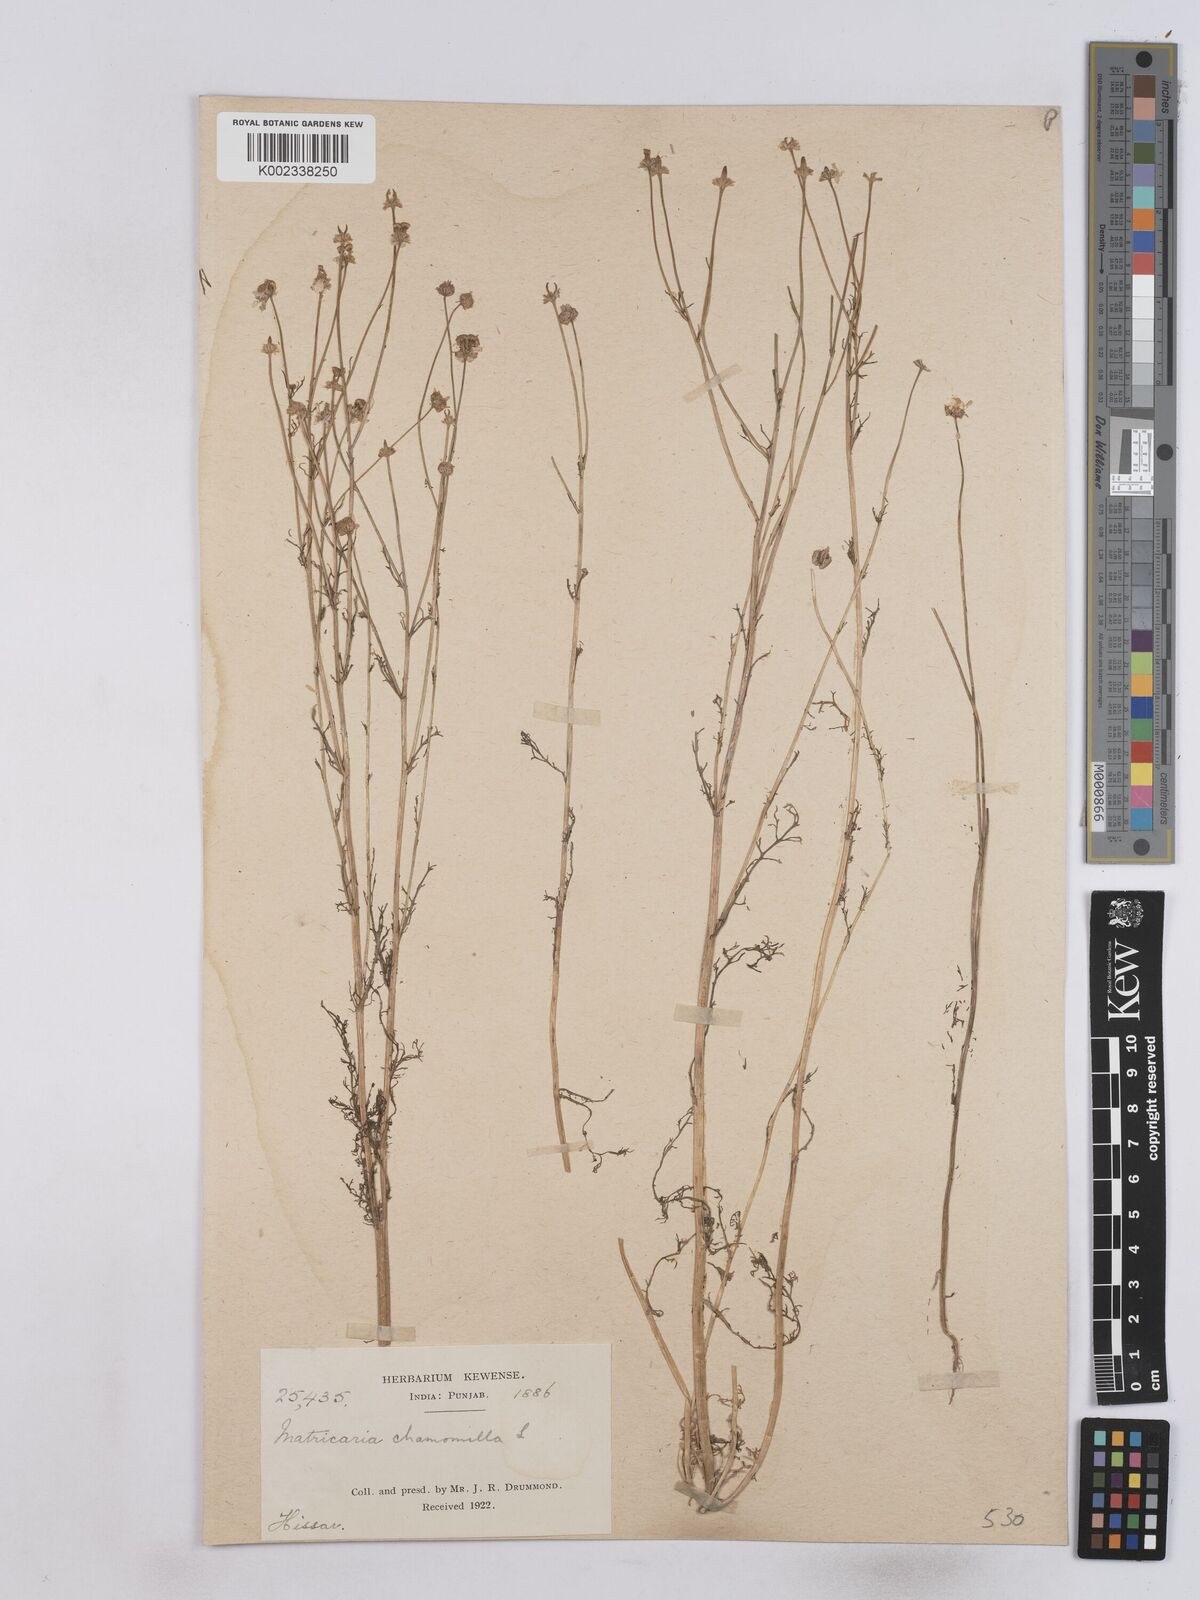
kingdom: Plantae
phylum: Tracheophyta
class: Magnoliopsida
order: Asterales
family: Asteraceae
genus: Matricaria
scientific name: Matricaria chamomilla
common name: Scented mayweed
